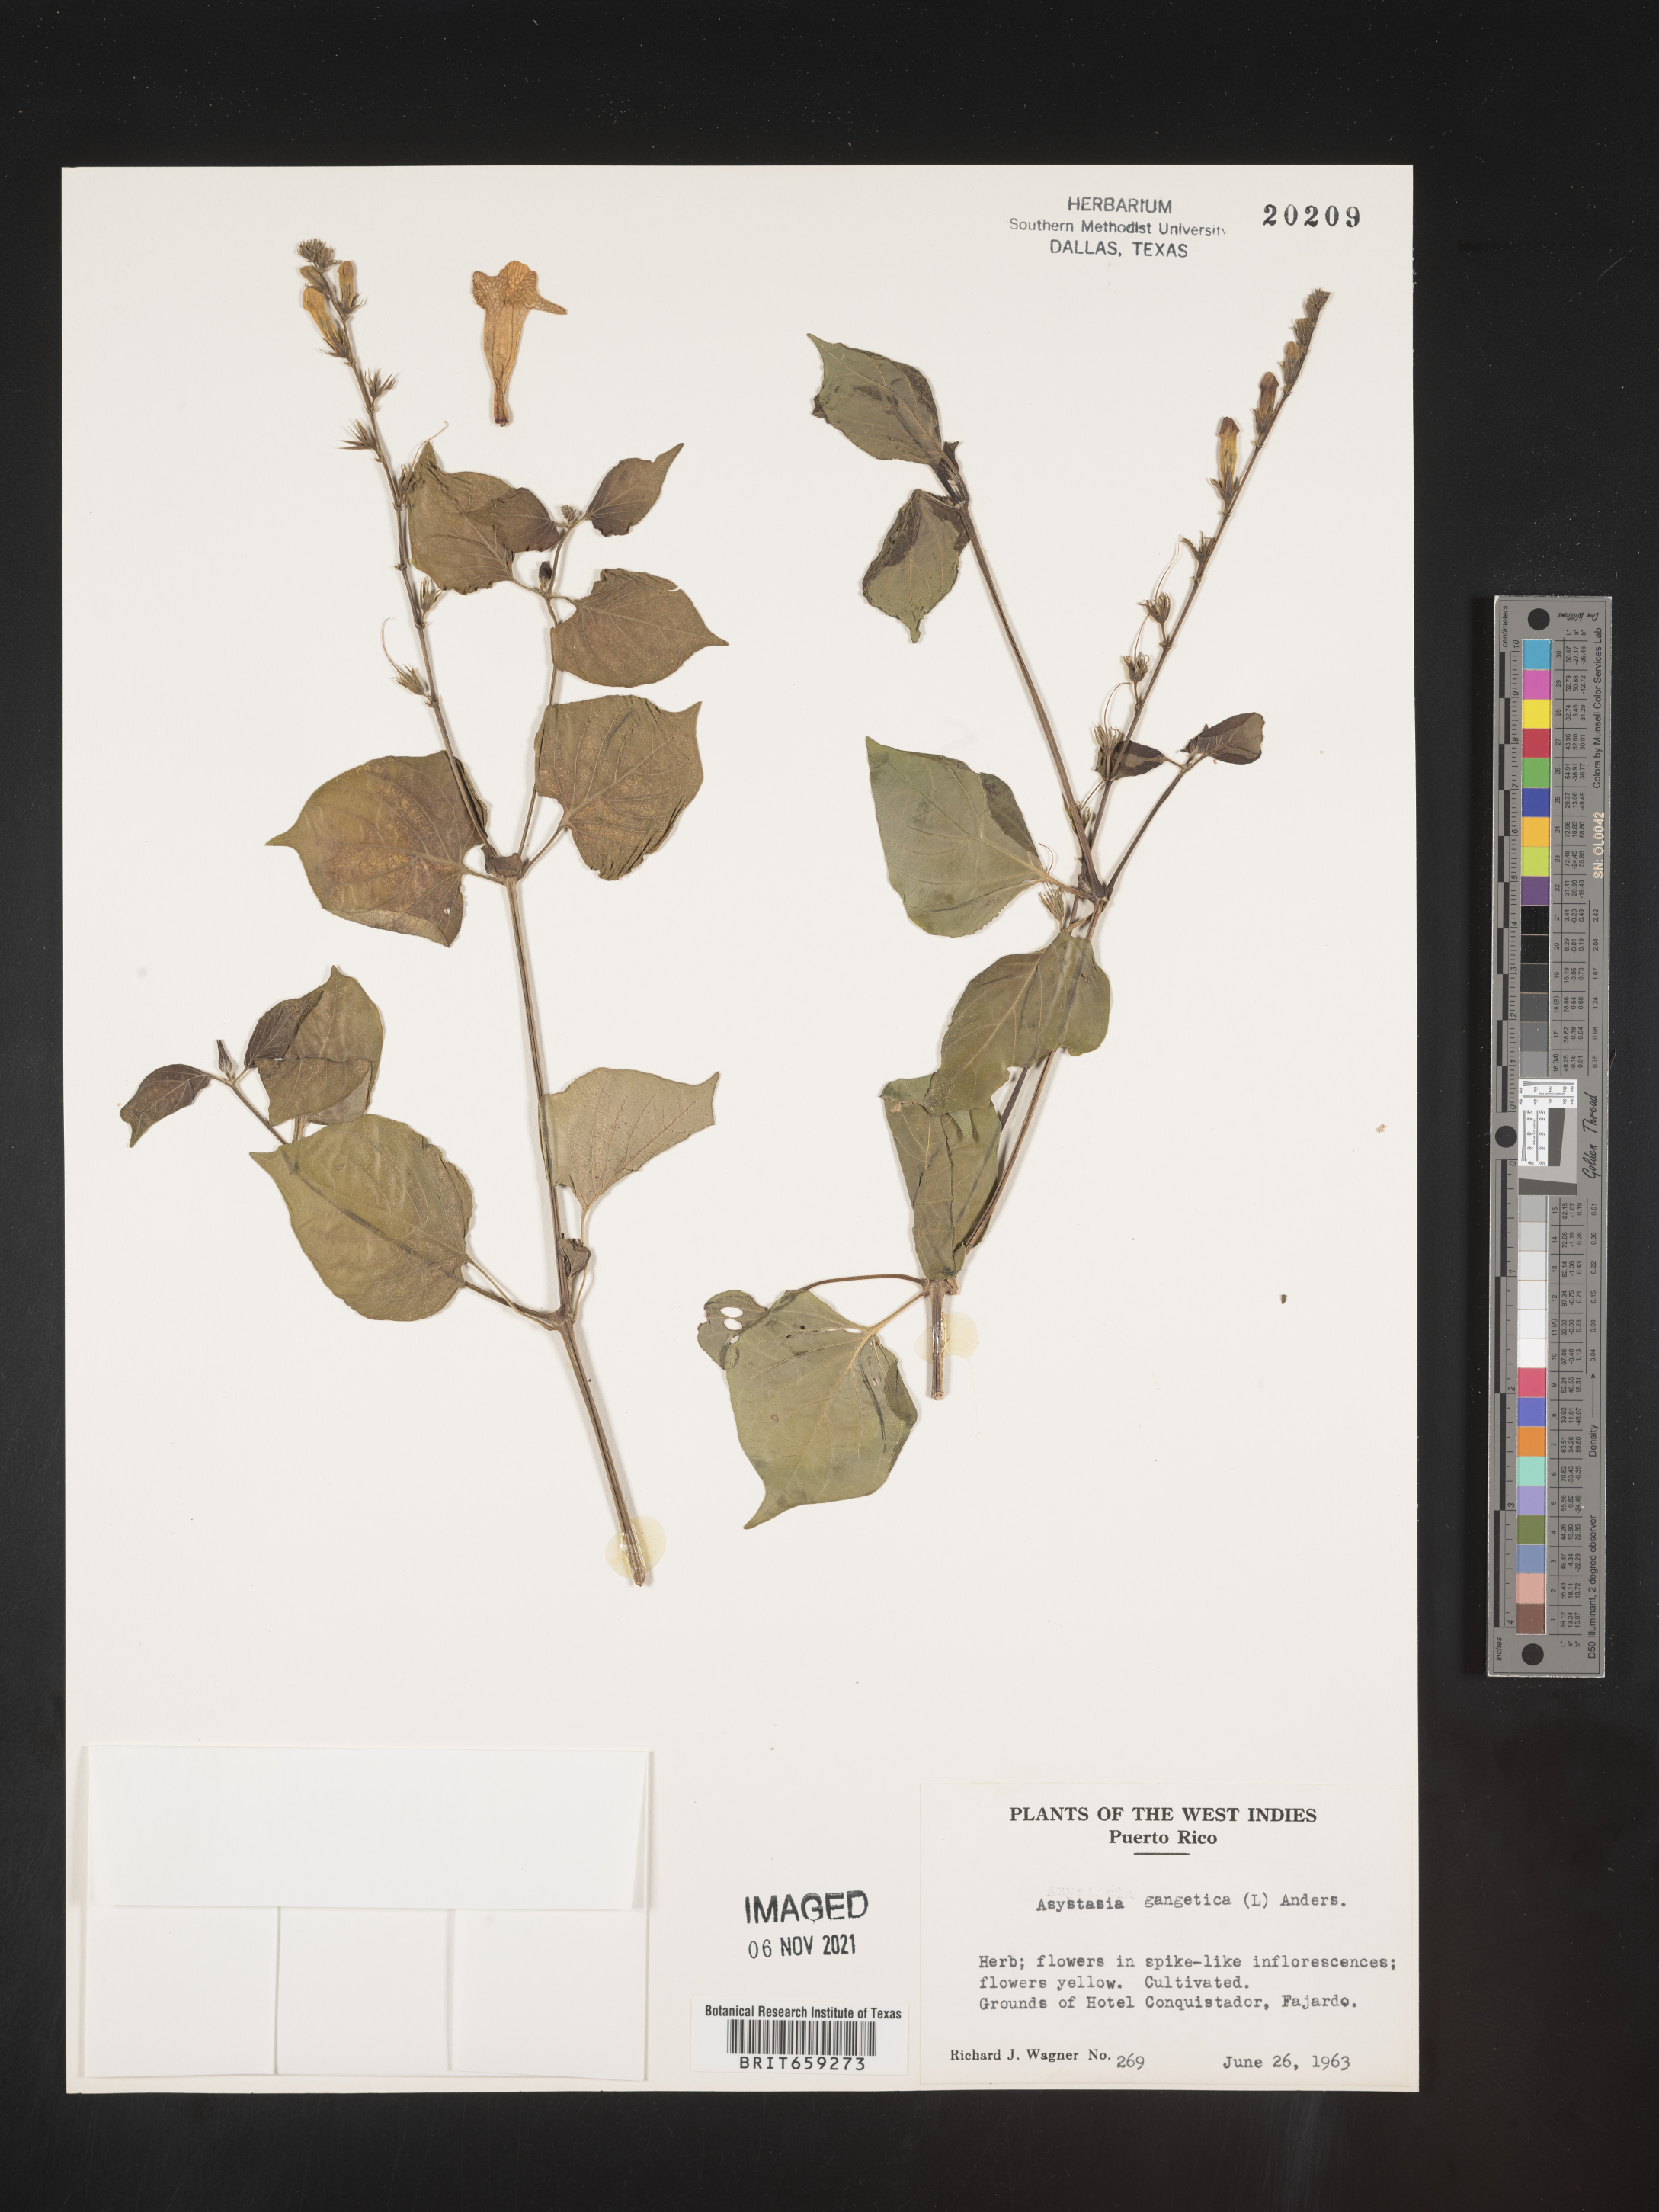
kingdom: Plantae
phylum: Tracheophyta
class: Magnoliopsida
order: Lamiales
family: Acanthaceae
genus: Asystasia
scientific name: Asystasia
